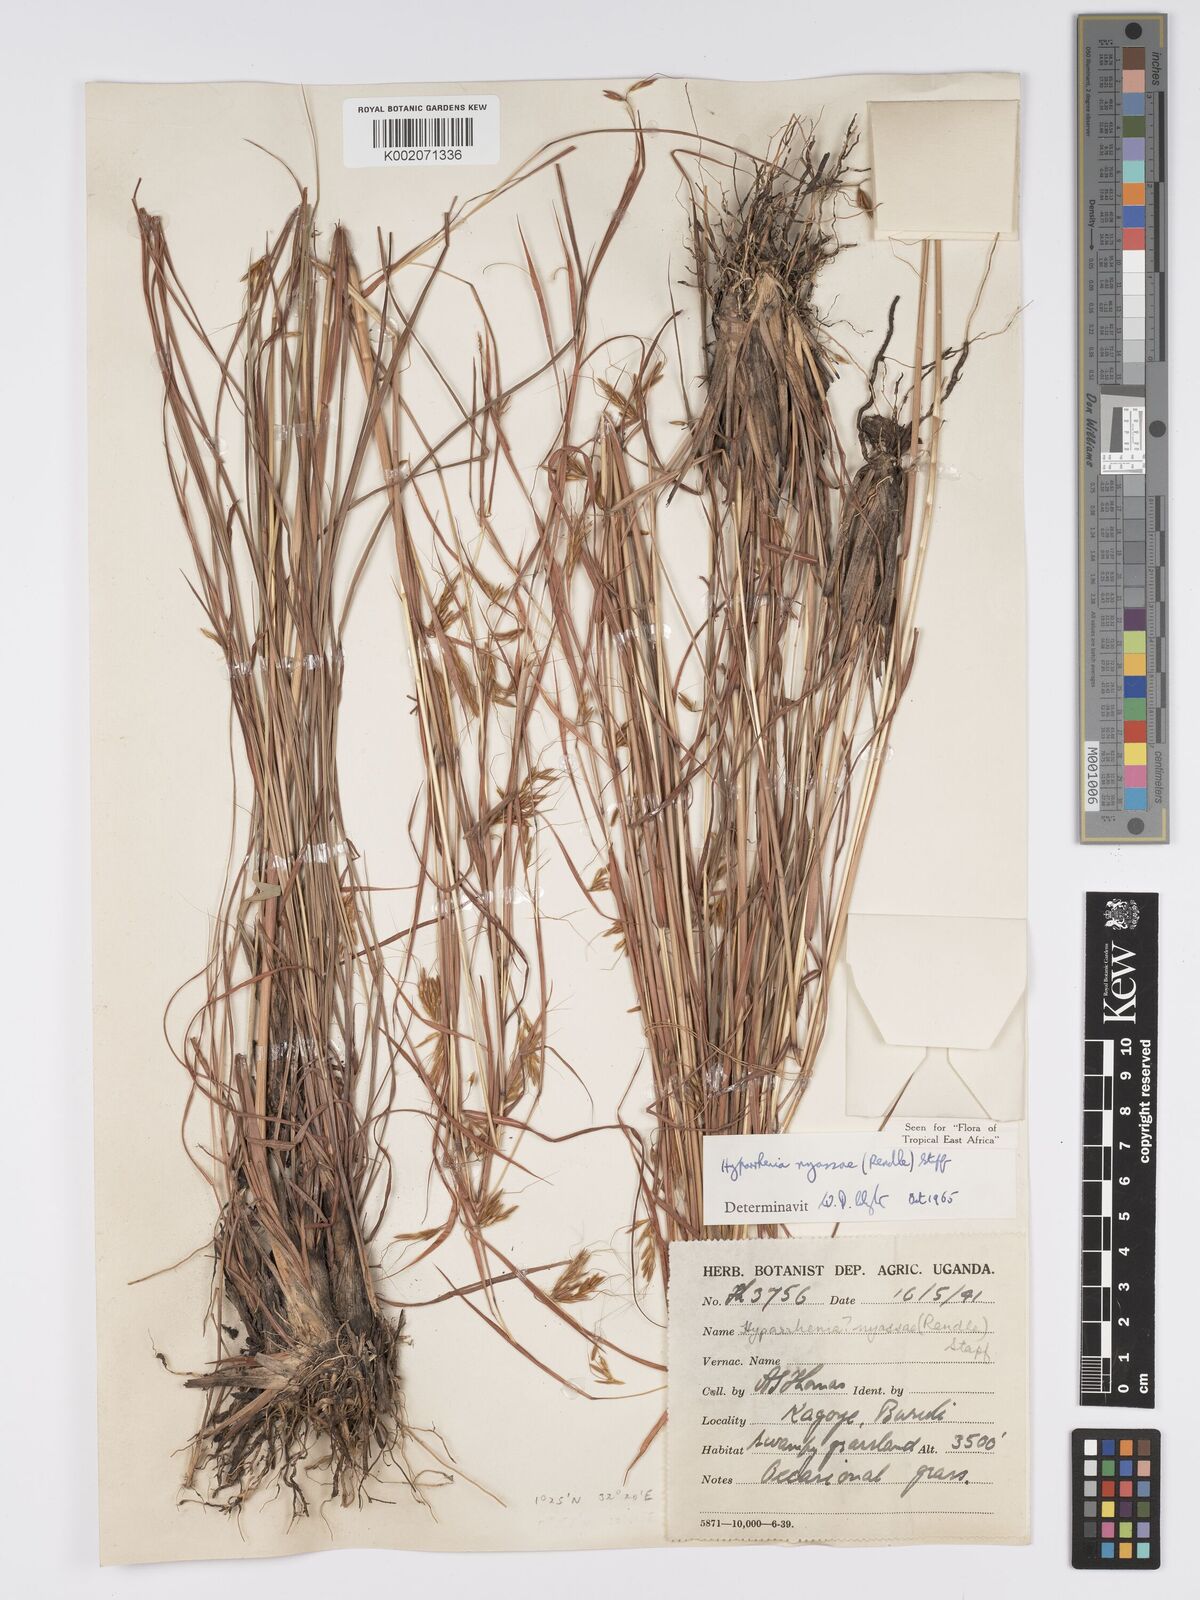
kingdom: Plantae
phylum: Tracheophyta
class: Liliopsida
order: Poales
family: Poaceae
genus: Hyparrhenia
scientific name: Hyparrhenia nyassae
